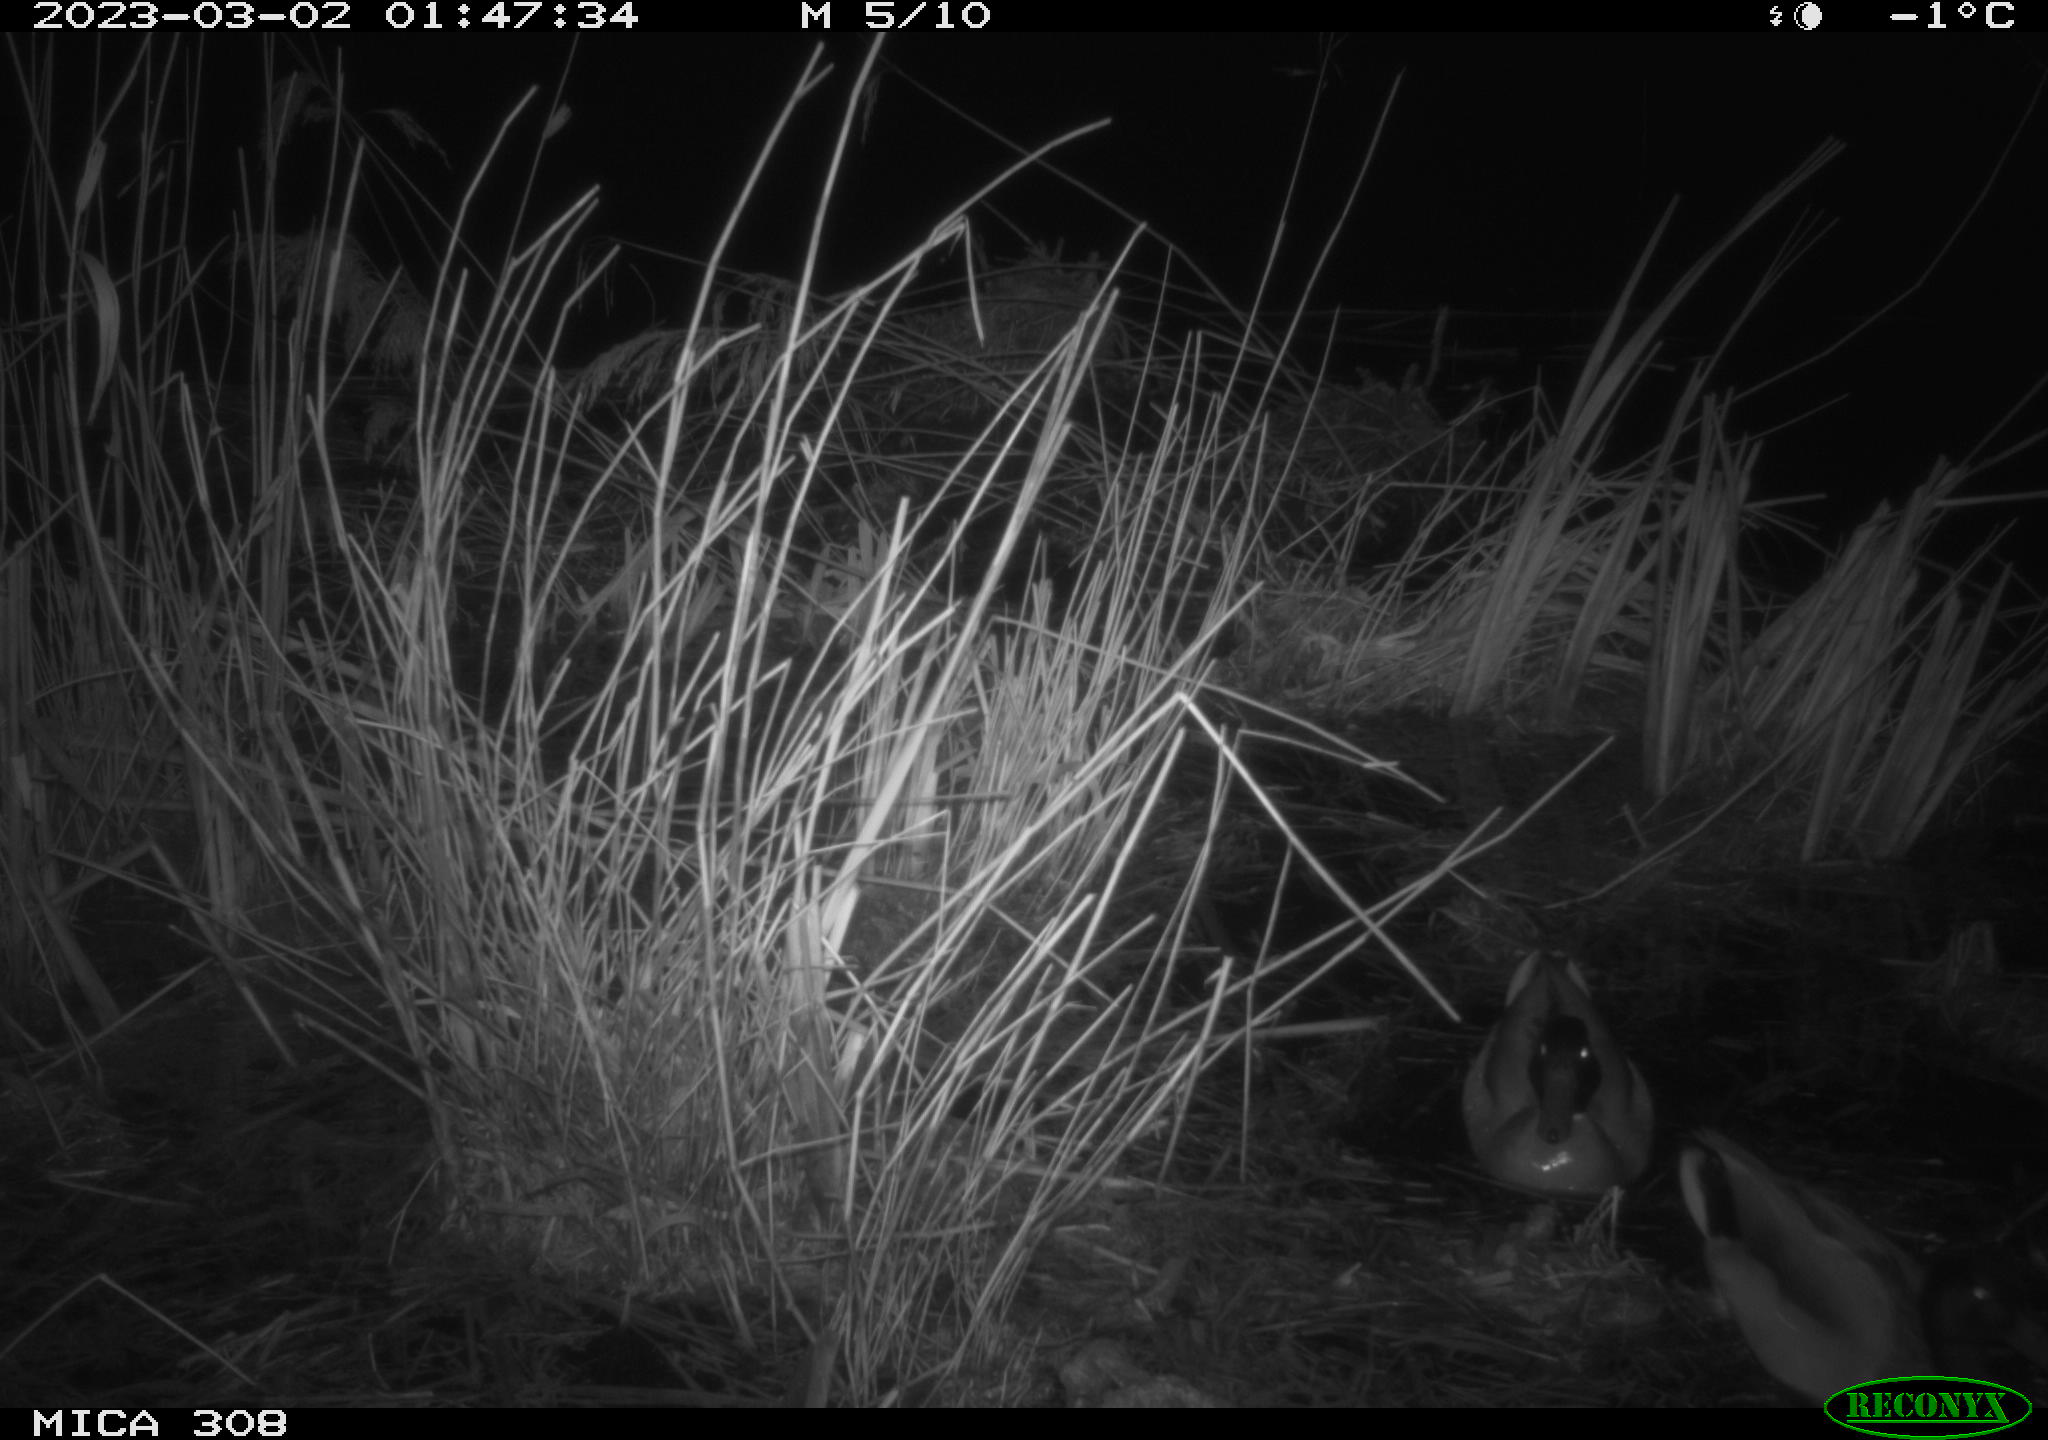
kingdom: Animalia
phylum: Chordata
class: Aves
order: Anseriformes
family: Anatidae
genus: Anas
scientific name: Anas
